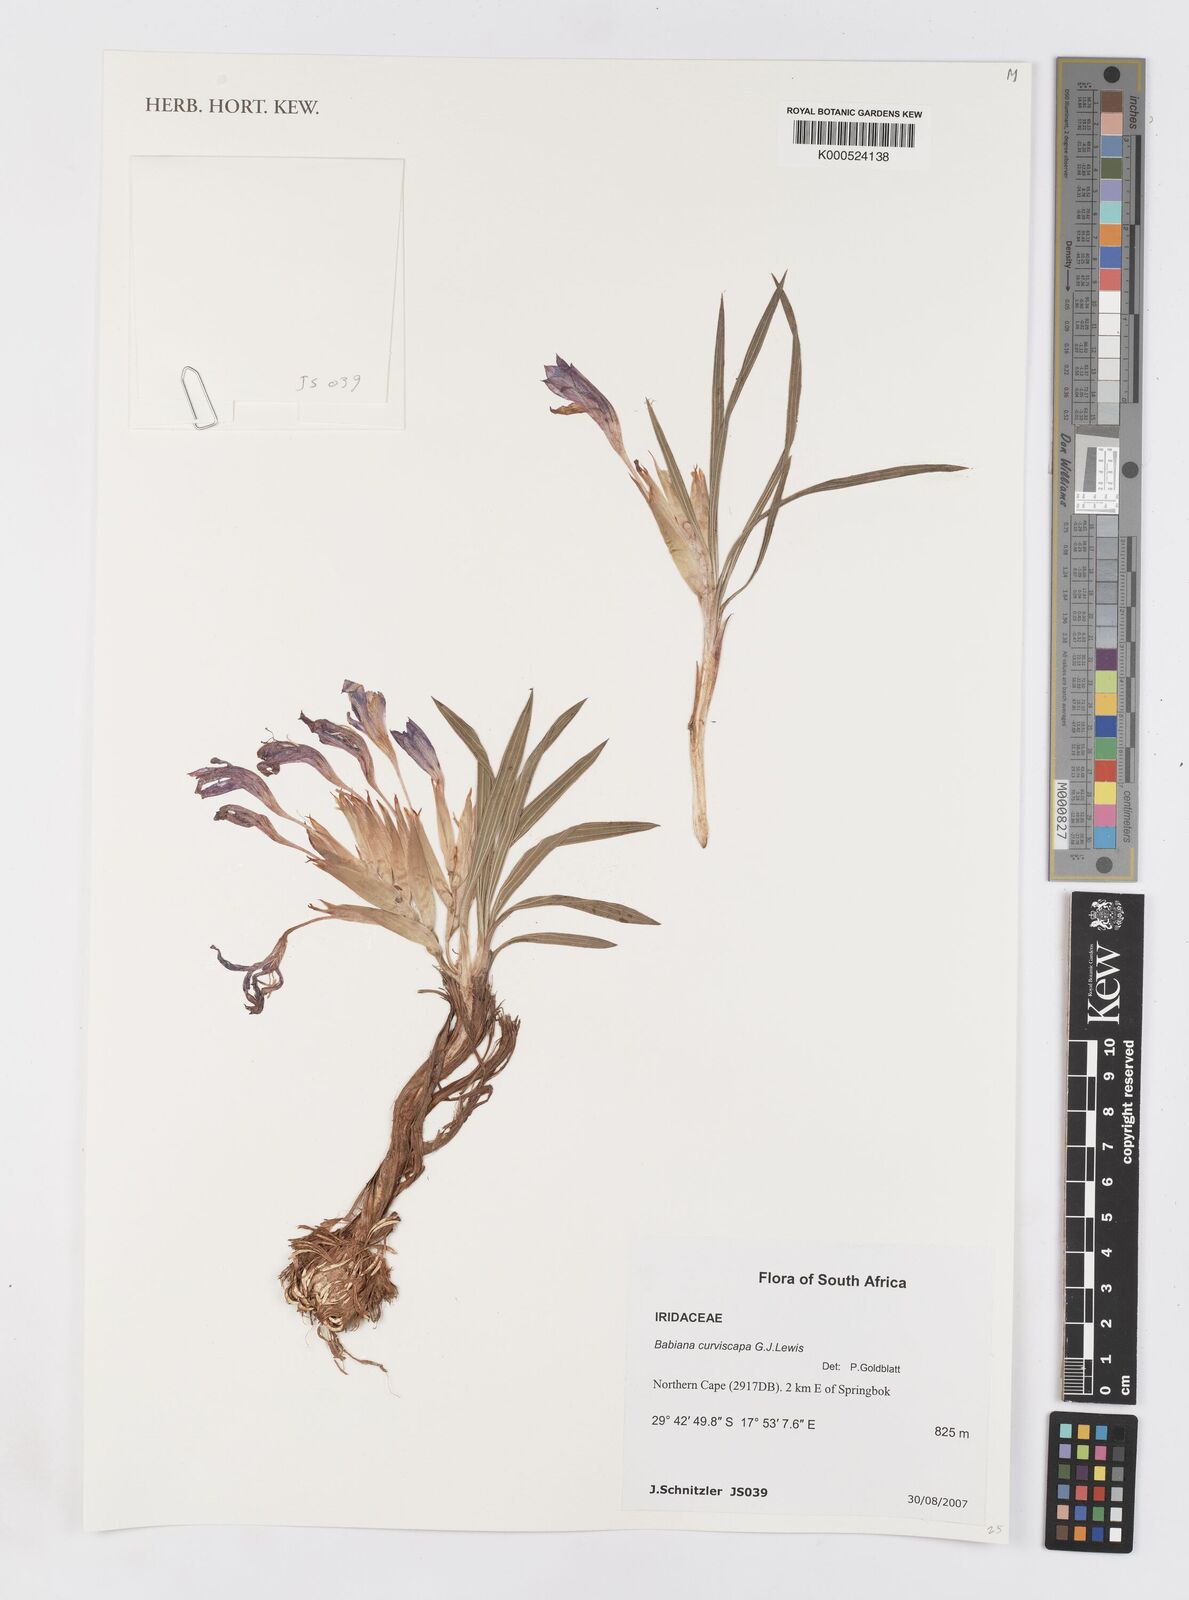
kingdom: Plantae
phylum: Tracheophyta
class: Liliopsida
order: Asparagales
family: Iridaceae
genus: Babiana
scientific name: Babiana curviscapa
